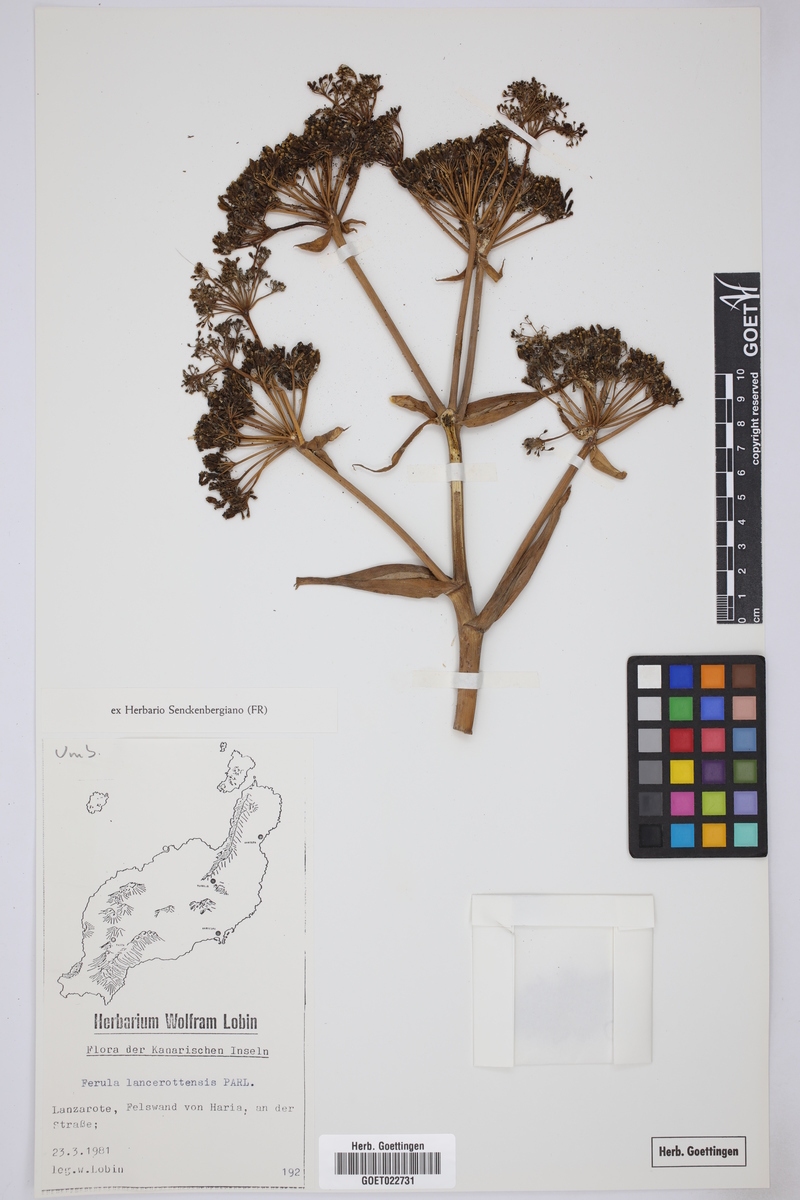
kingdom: Plantae
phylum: Tracheophyta
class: Magnoliopsida
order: Apiales
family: Apiaceae
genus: Ferula
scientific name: Ferula lancerotensis
